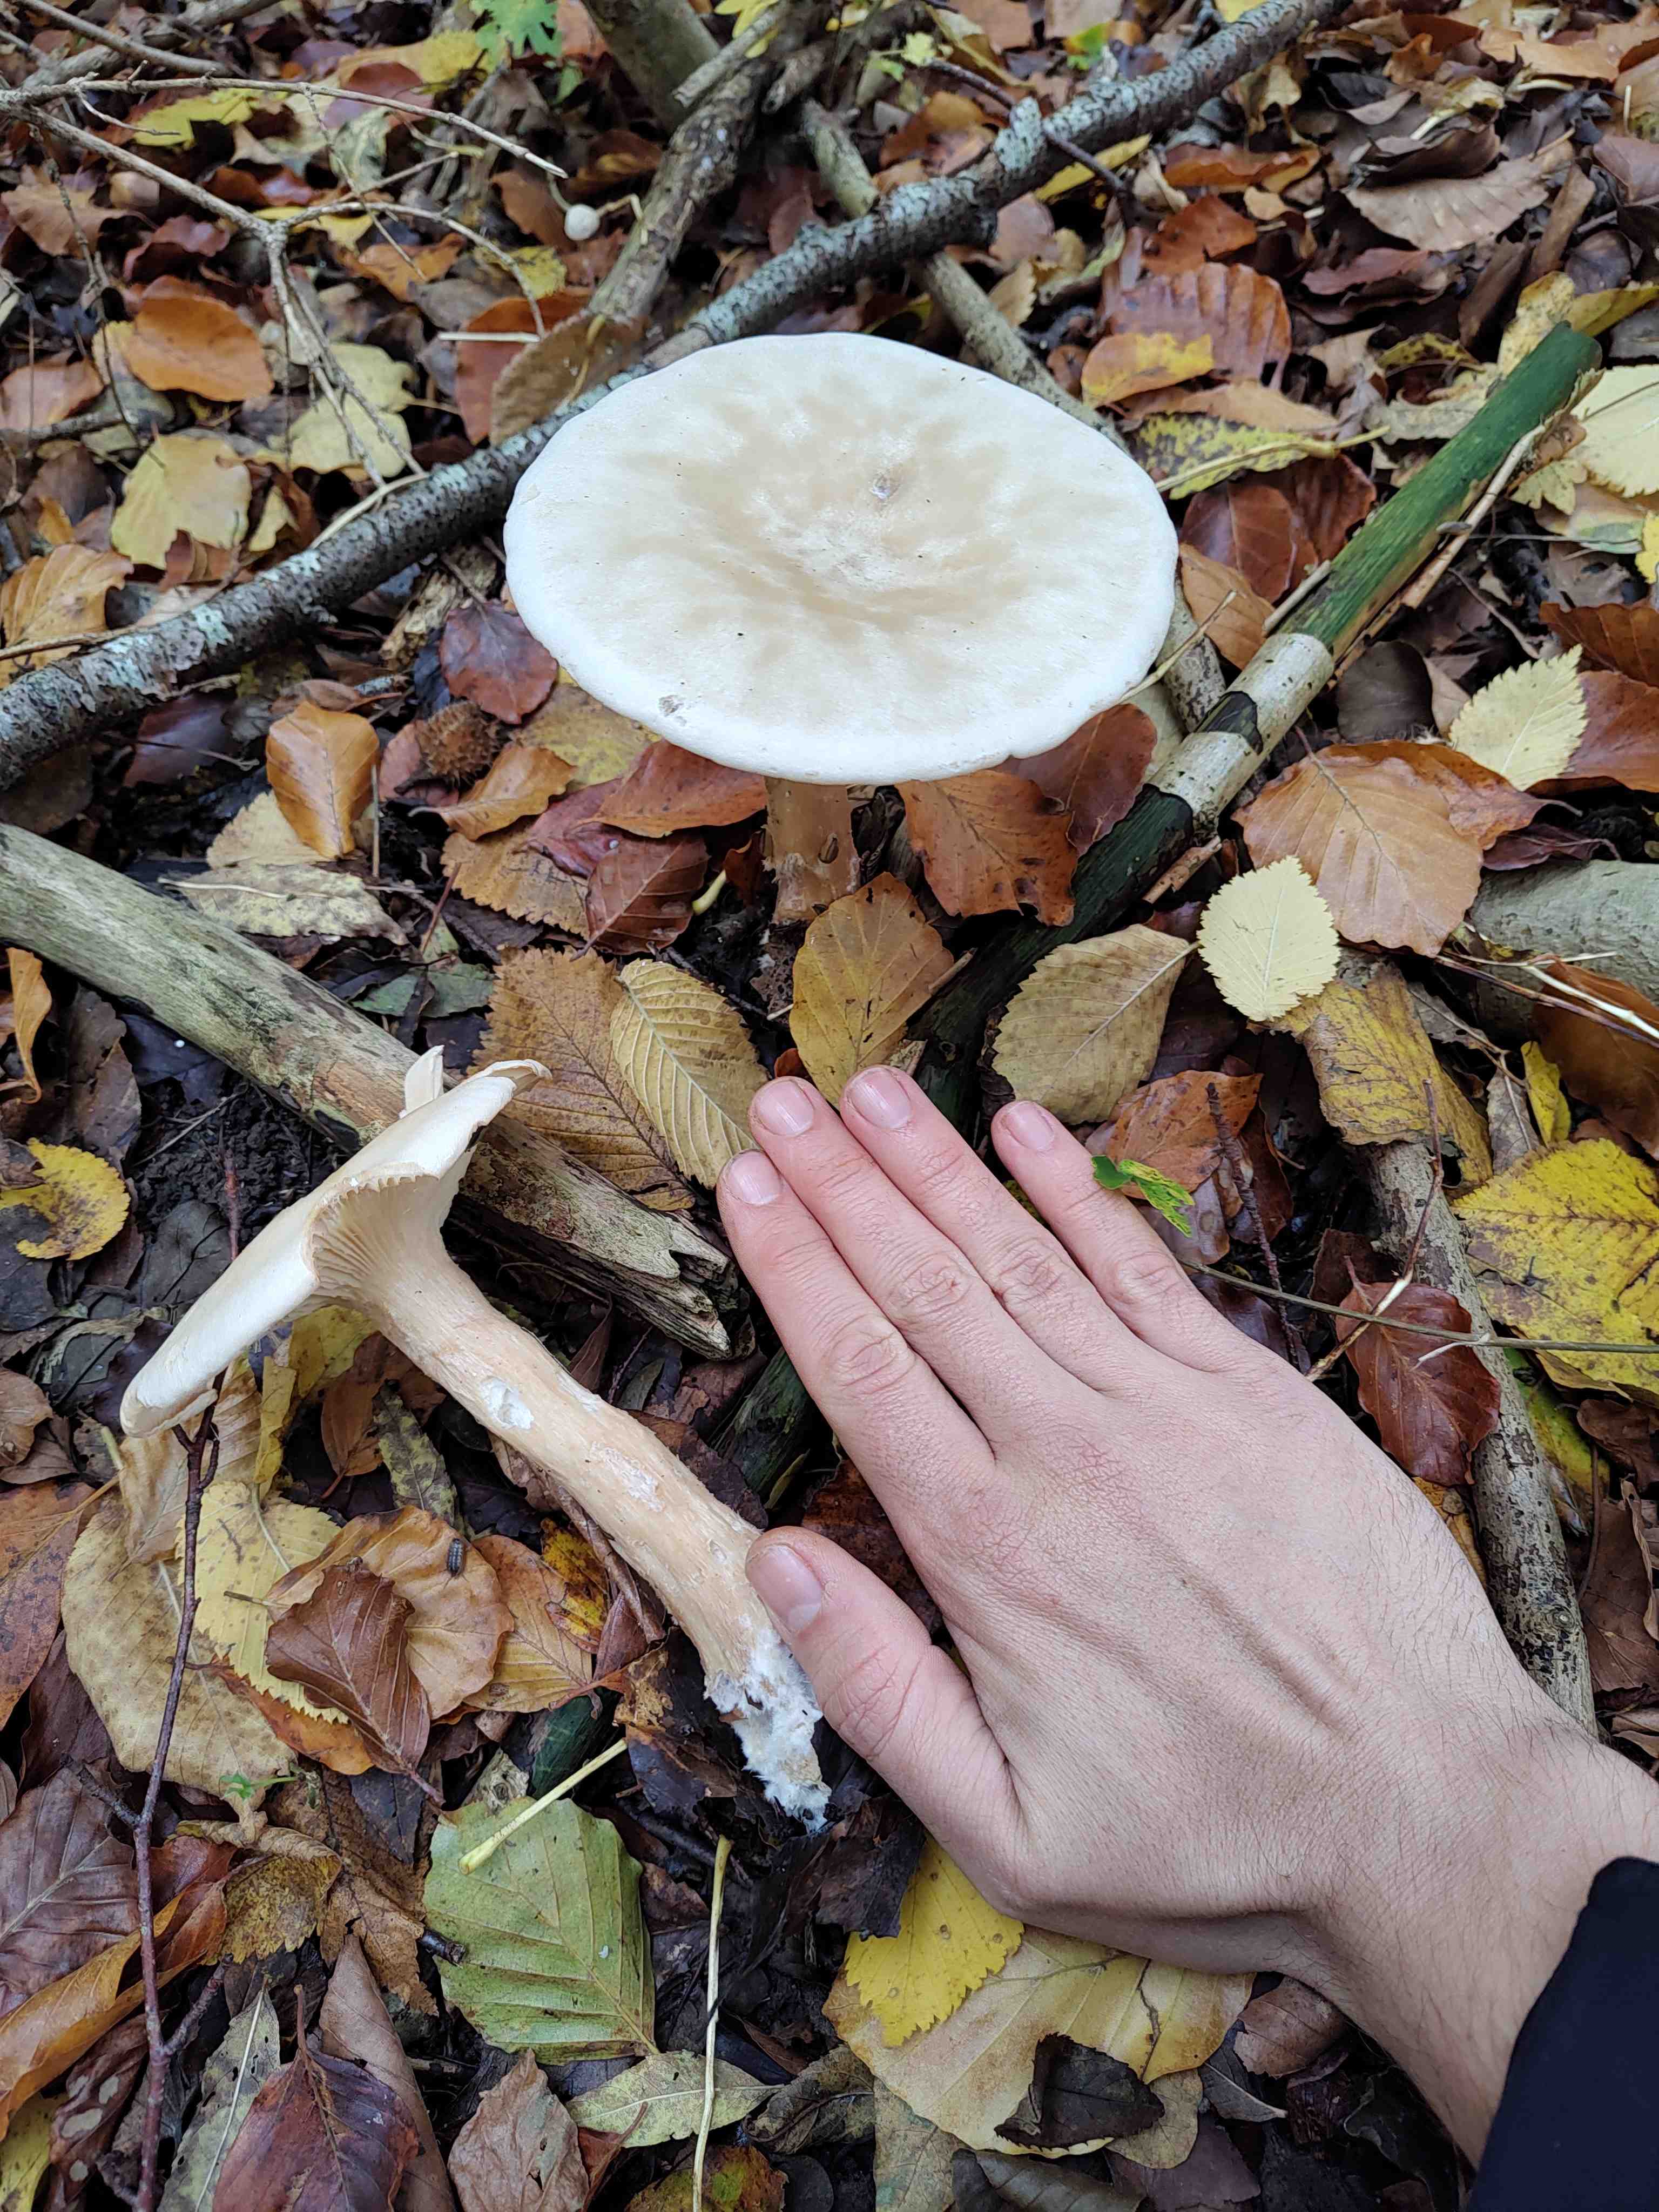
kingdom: Fungi
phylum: Basidiomycota
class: Agaricomycetes
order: Agaricales
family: Tricholomataceae
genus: Infundibulicybe
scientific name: Infundibulicybe geotropa
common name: stor tragthat
